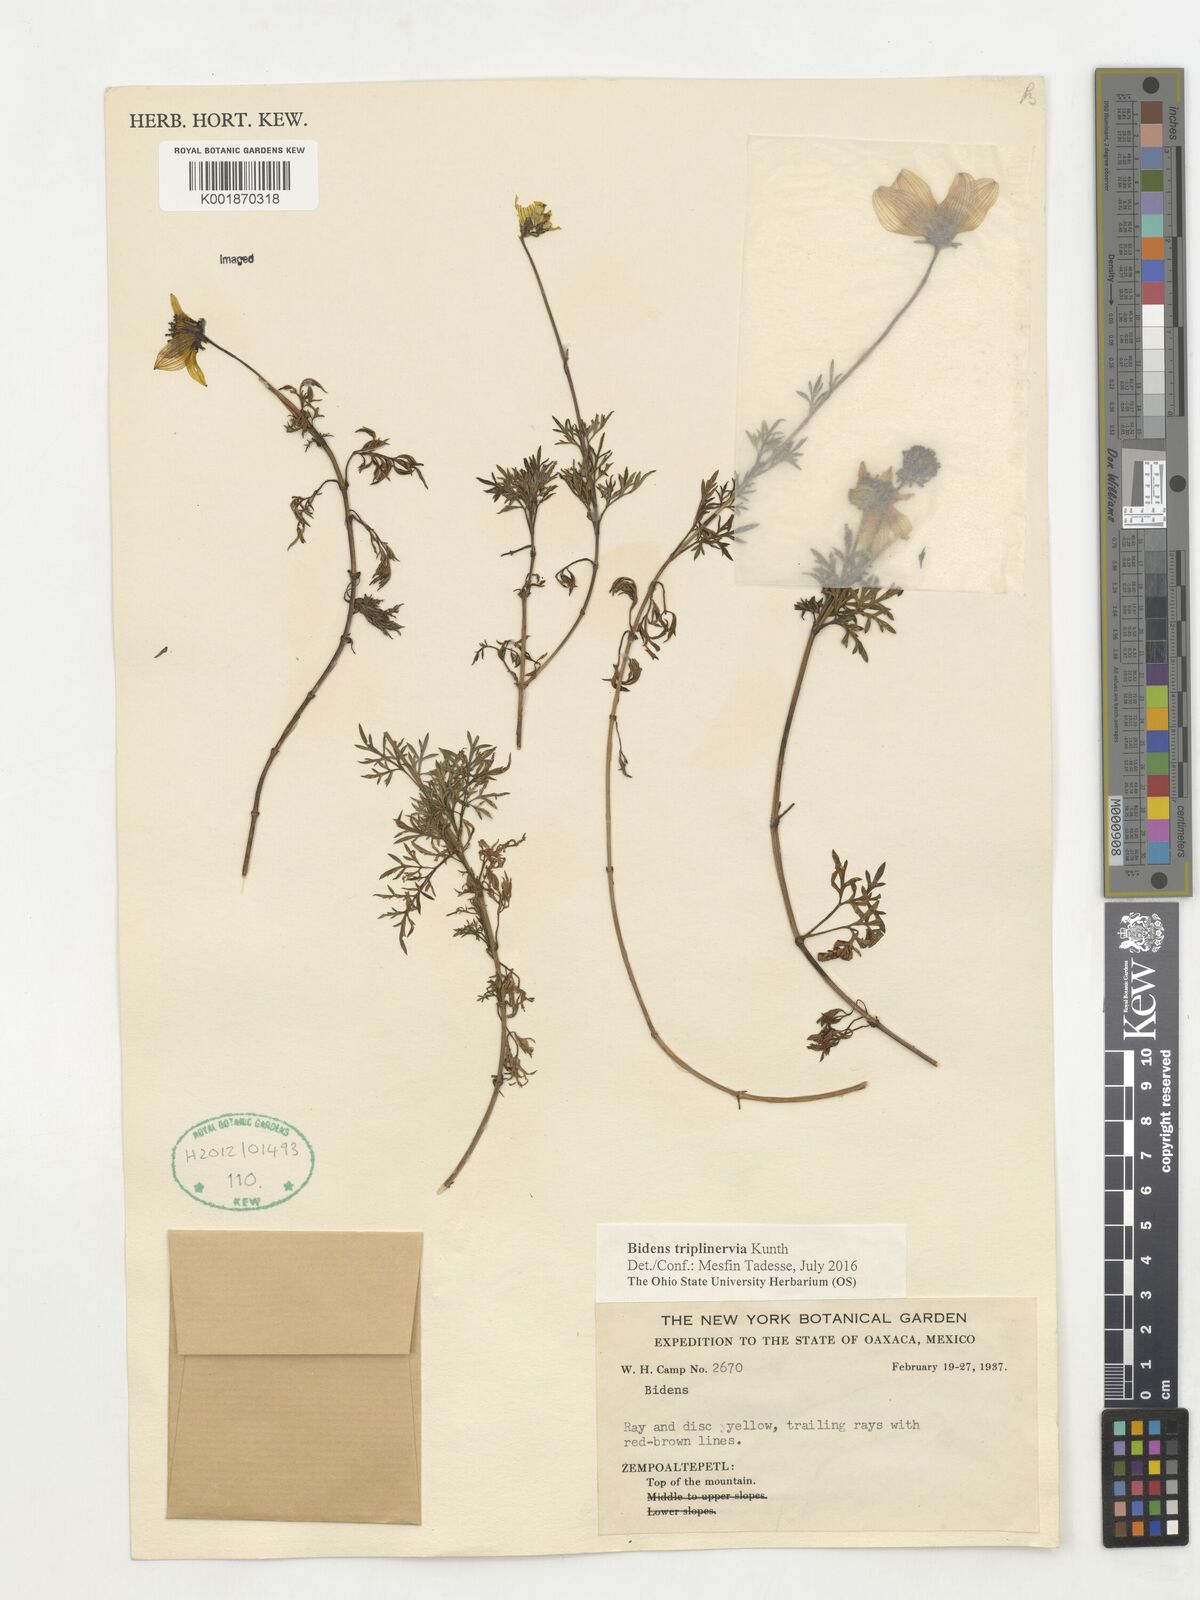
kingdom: Plantae
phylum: Tracheophyta
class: Magnoliopsida
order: Asterales
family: Asteraceae
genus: Bidens
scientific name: Bidens triplinervia
